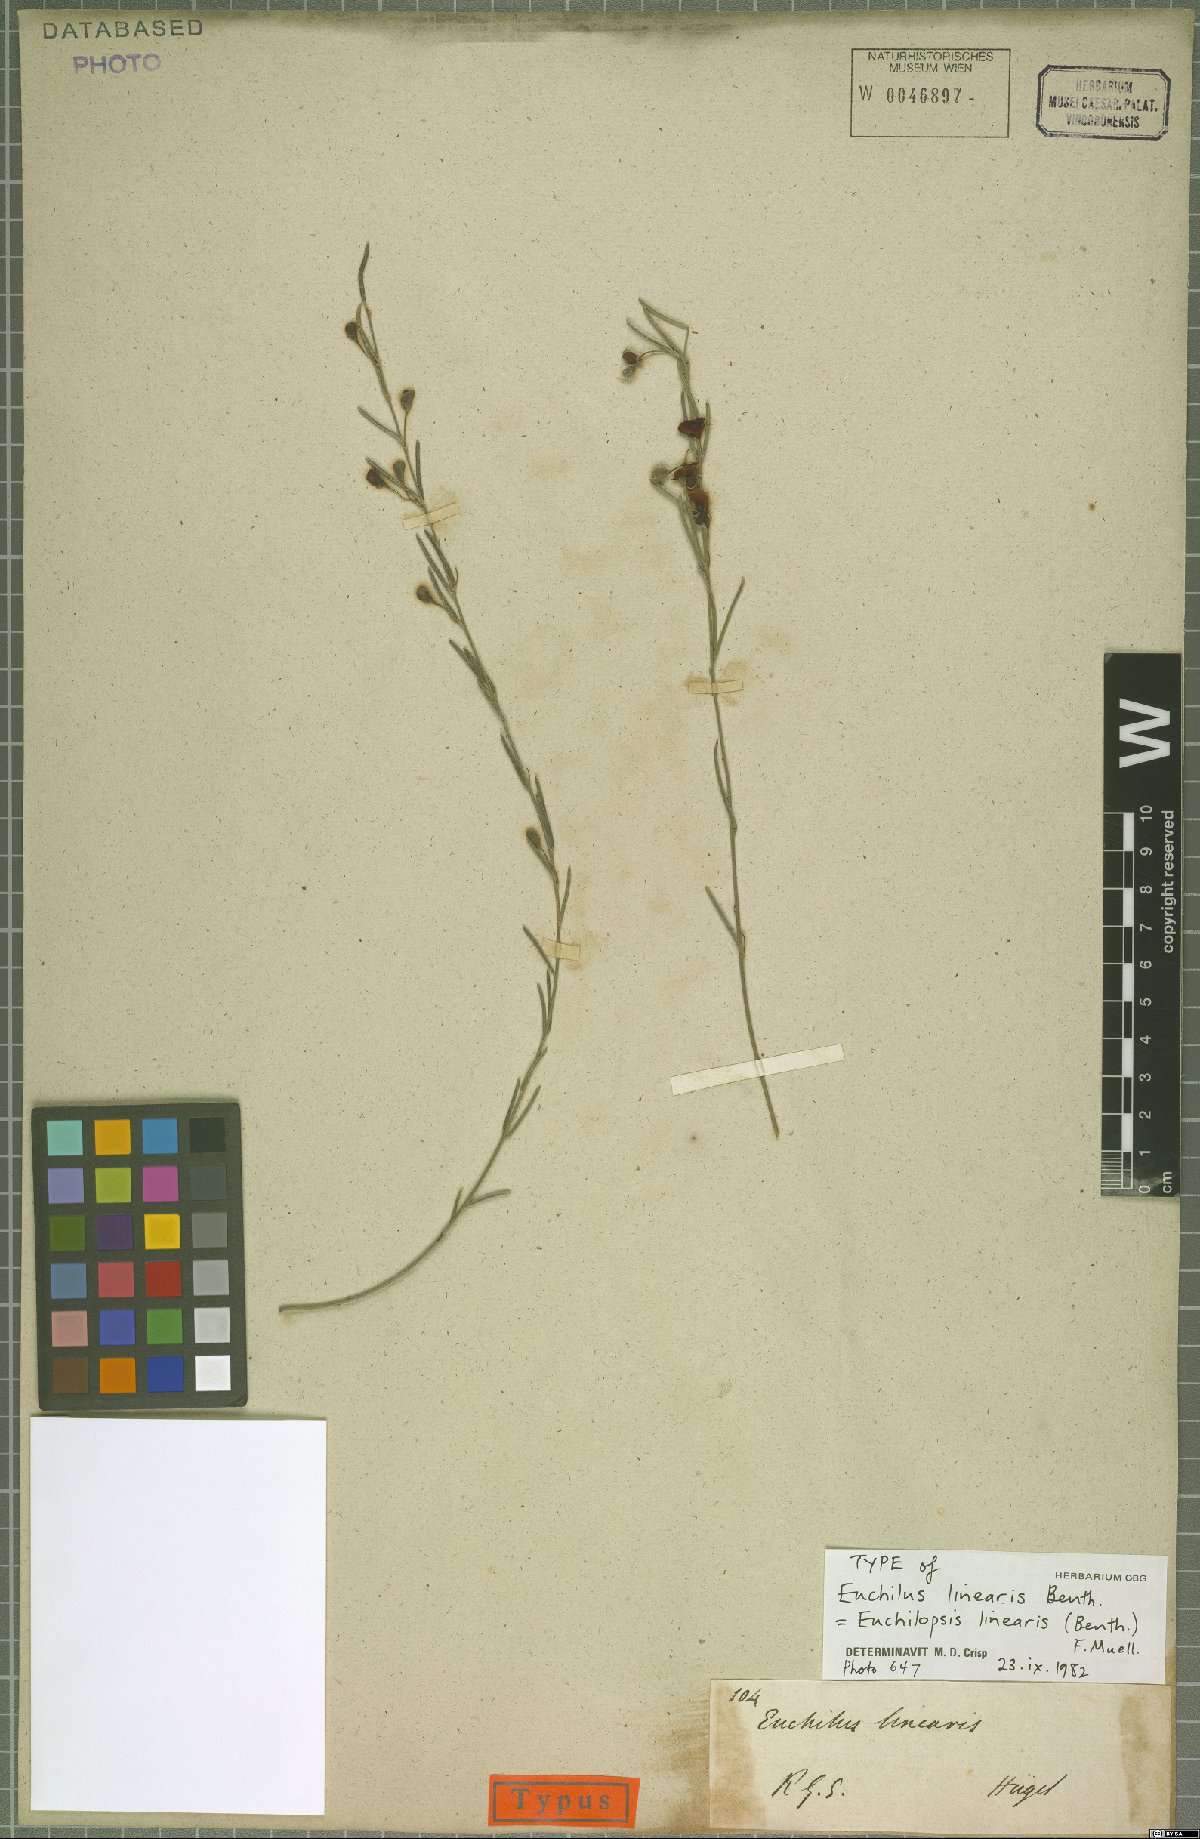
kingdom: Plantae
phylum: Tracheophyta
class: Magnoliopsida
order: Fabales
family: Fabaceae
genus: Euchilopsis
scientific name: Euchilopsis linearis
